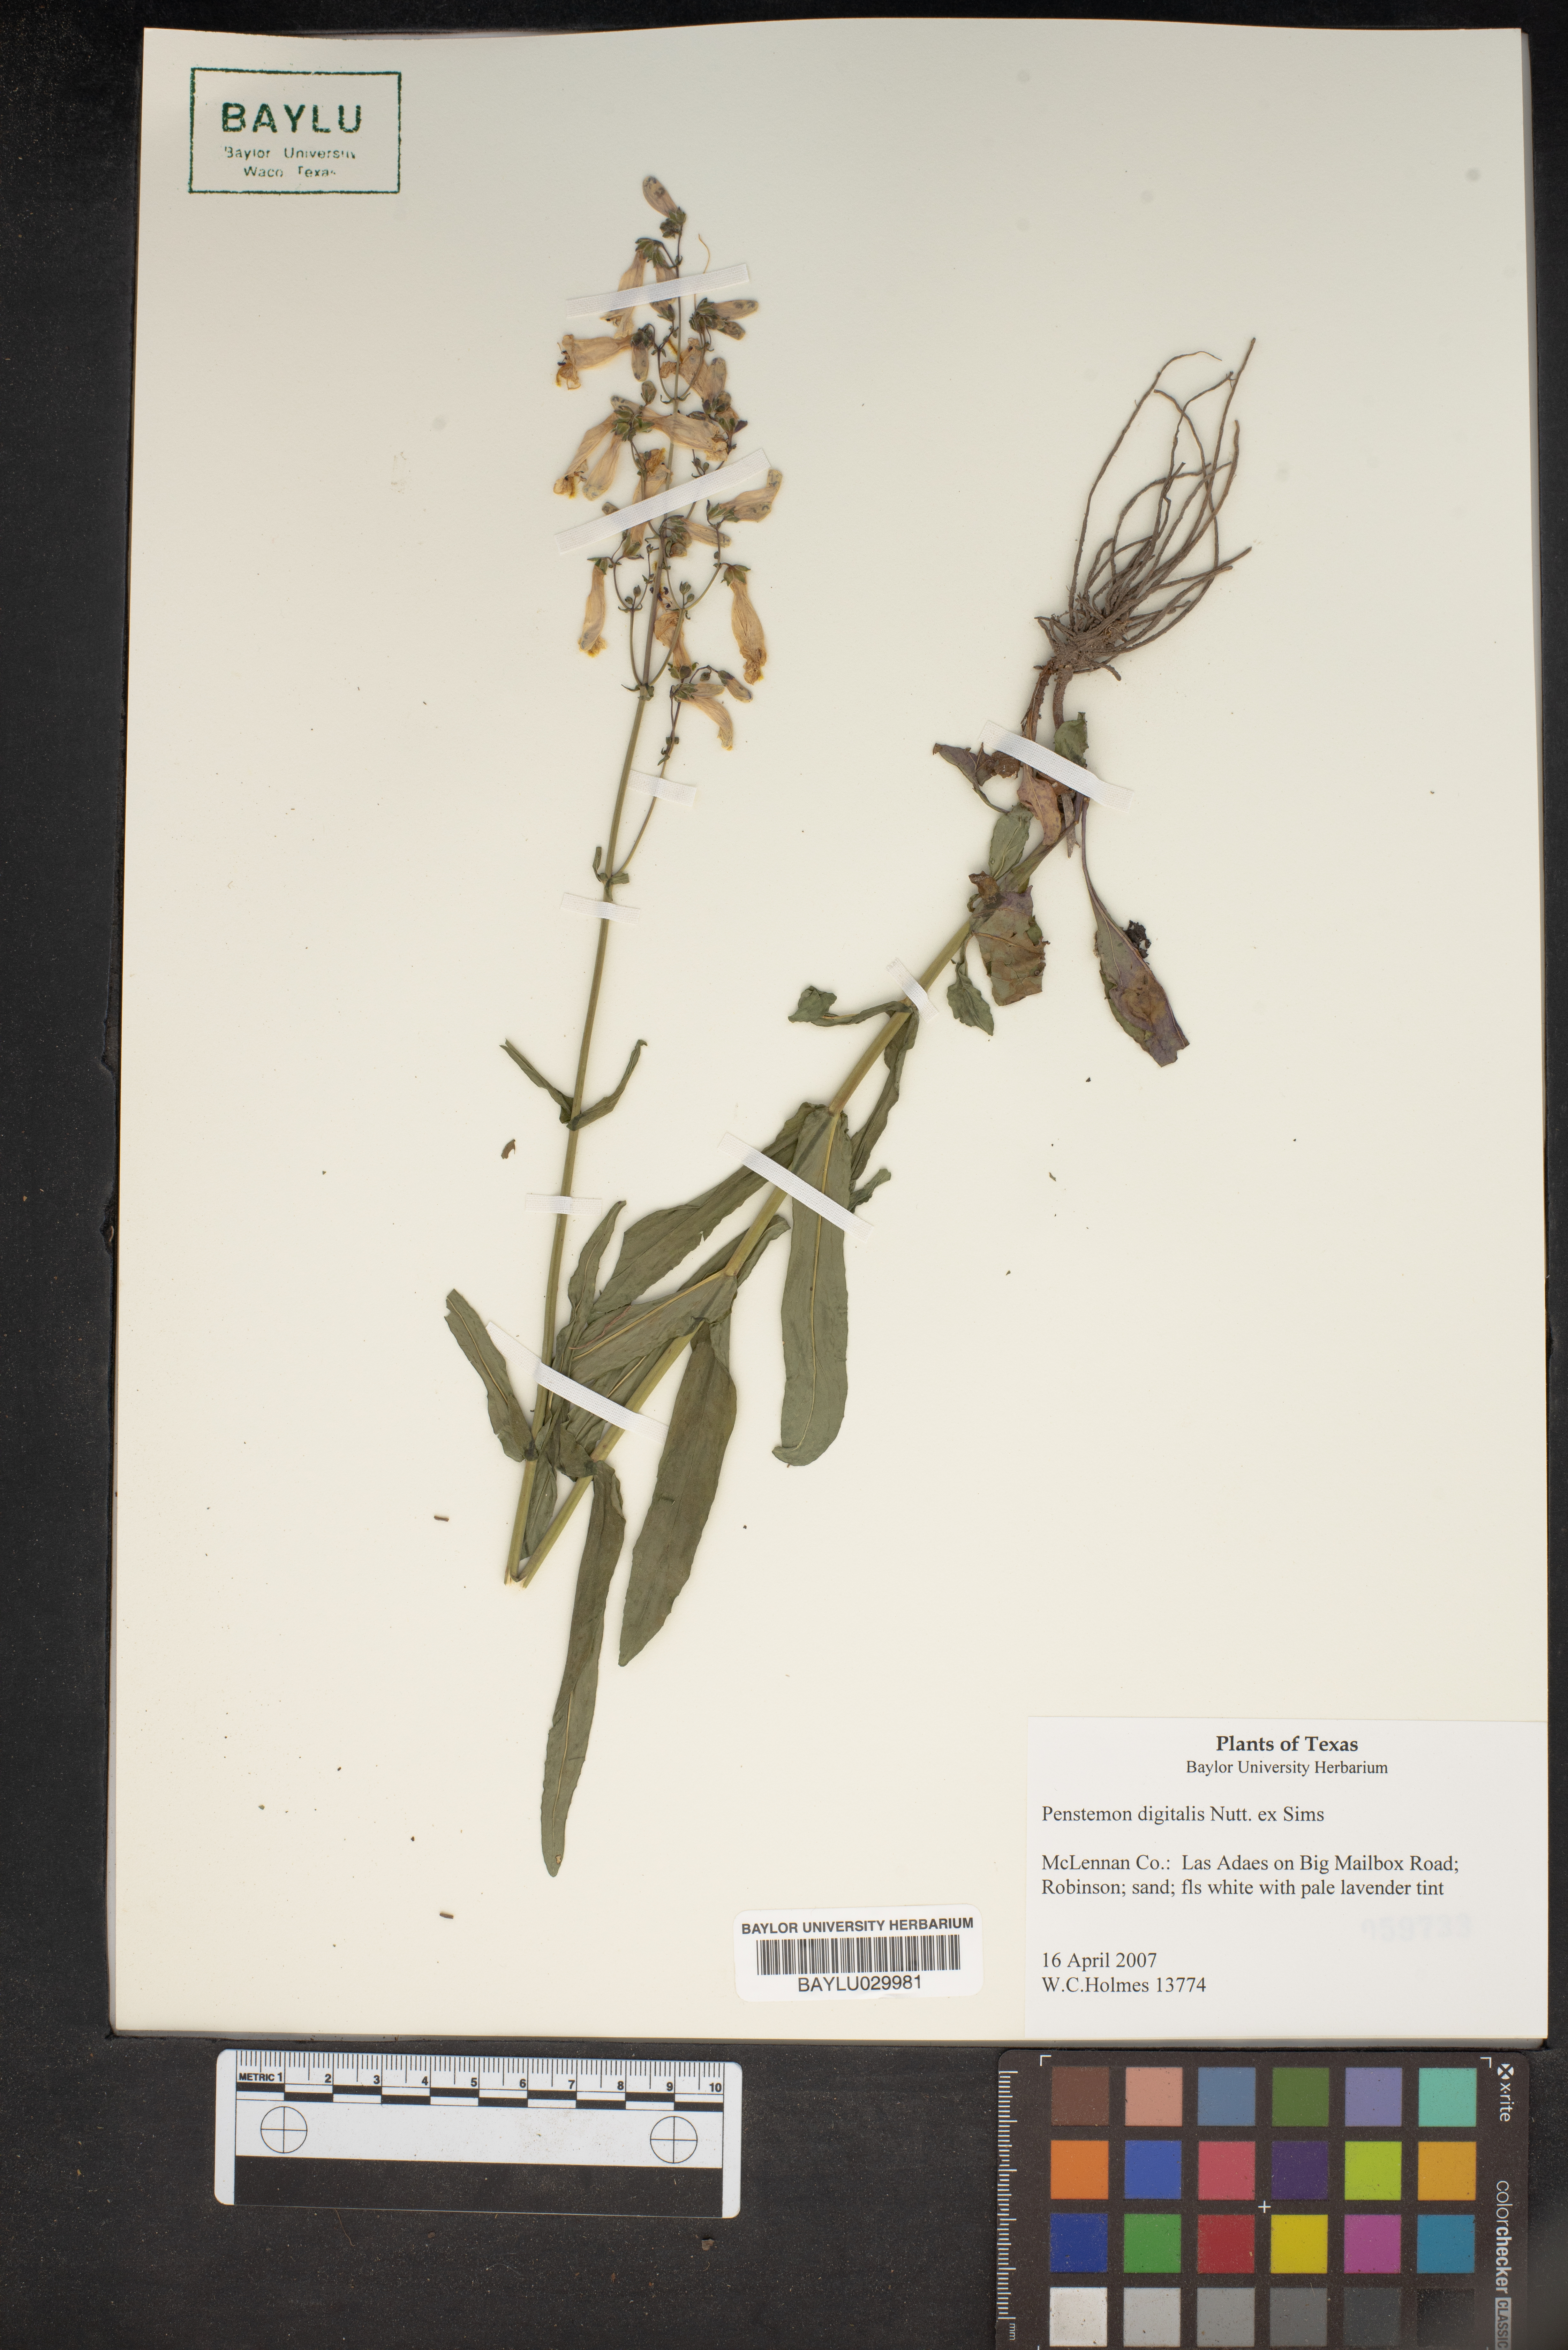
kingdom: Plantae
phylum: Tracheophyta
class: Magnoliopsida
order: Lamiales
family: Plantaginaceae
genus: Penstemon
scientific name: Penstemon
